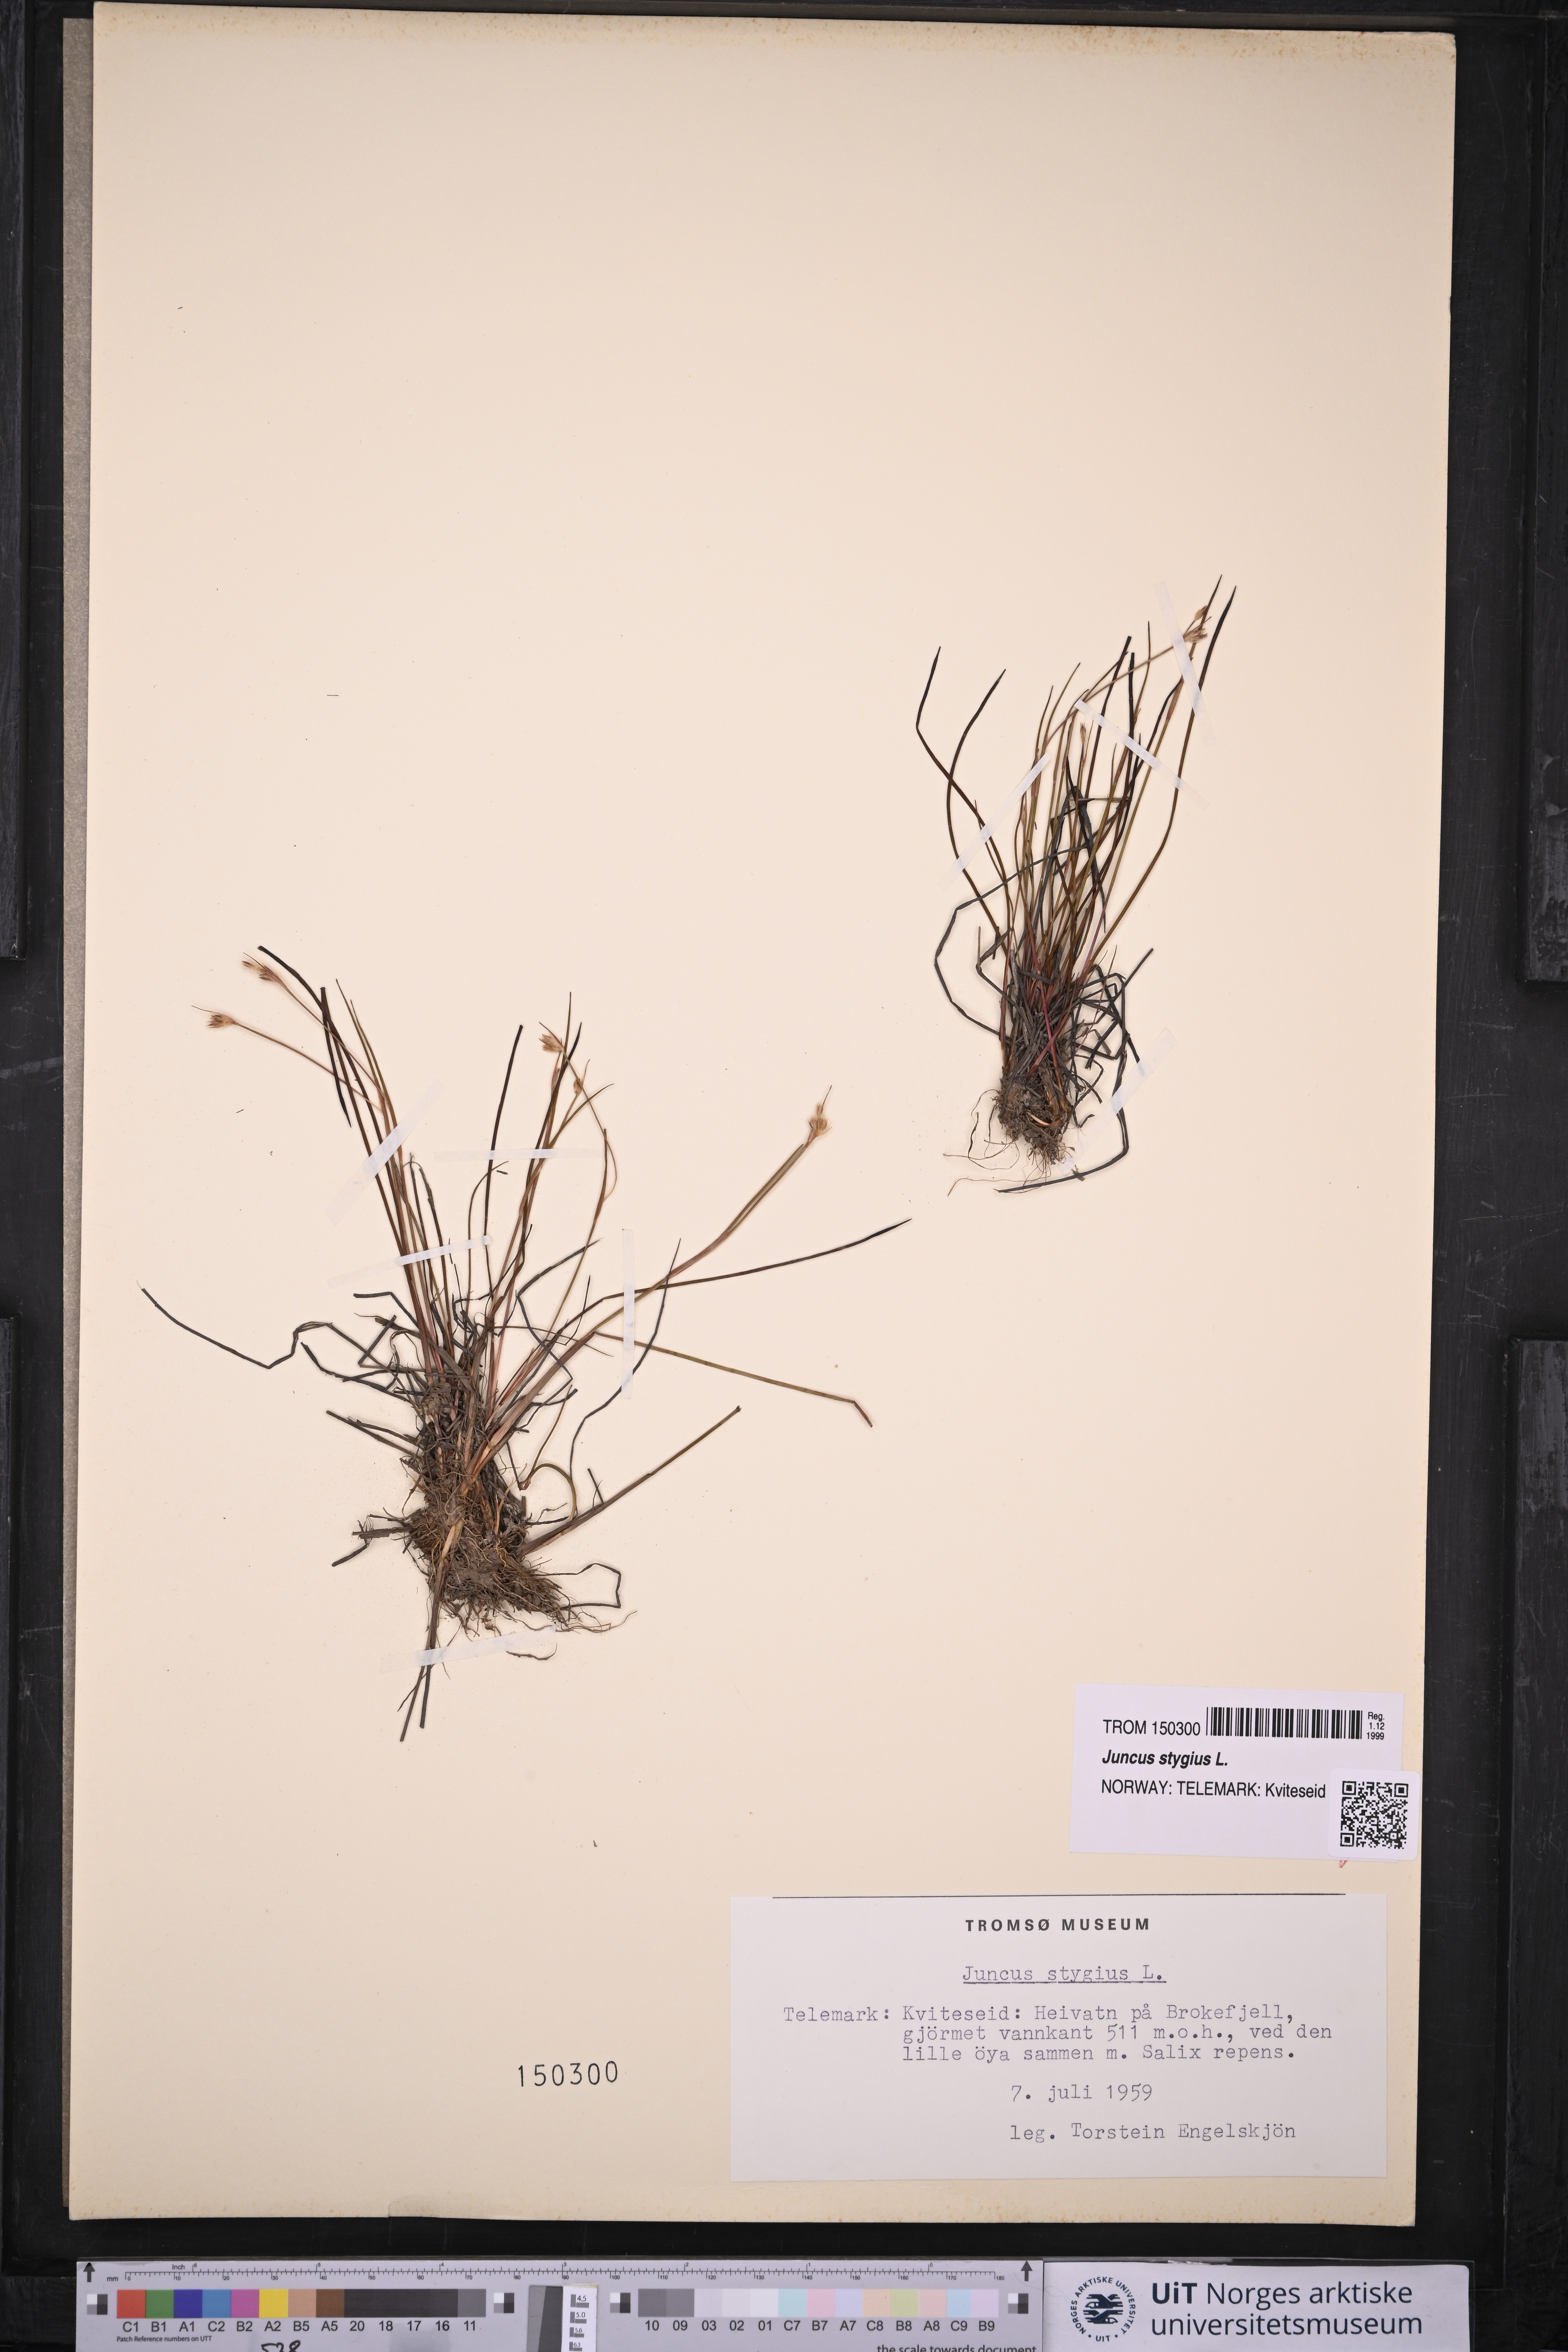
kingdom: Plantae
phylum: Tracheophyta
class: Liliopsida
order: Poales
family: Juncaceae
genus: Juncus
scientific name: Juncus stygius
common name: Bog rush
